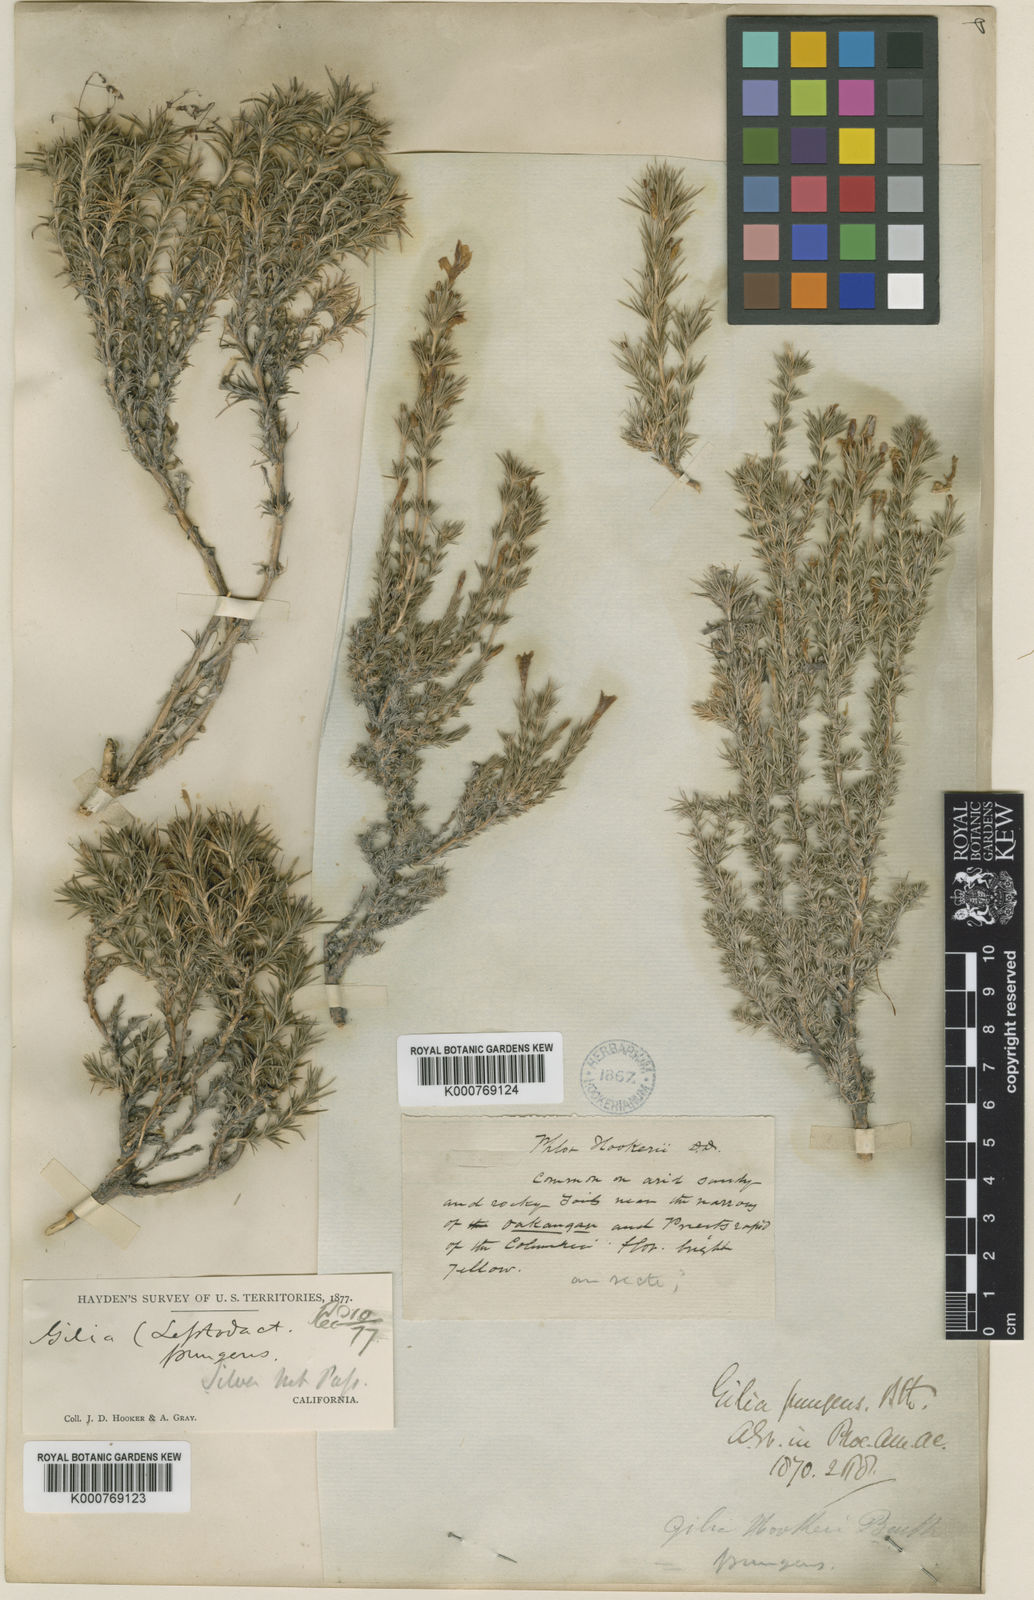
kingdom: Plantae
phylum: Tracheophyta
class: Magnoliopsida
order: Ericales
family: Polemoniaceae
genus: Linanthus
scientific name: Linanthus pungens
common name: Granite prickly phlox
